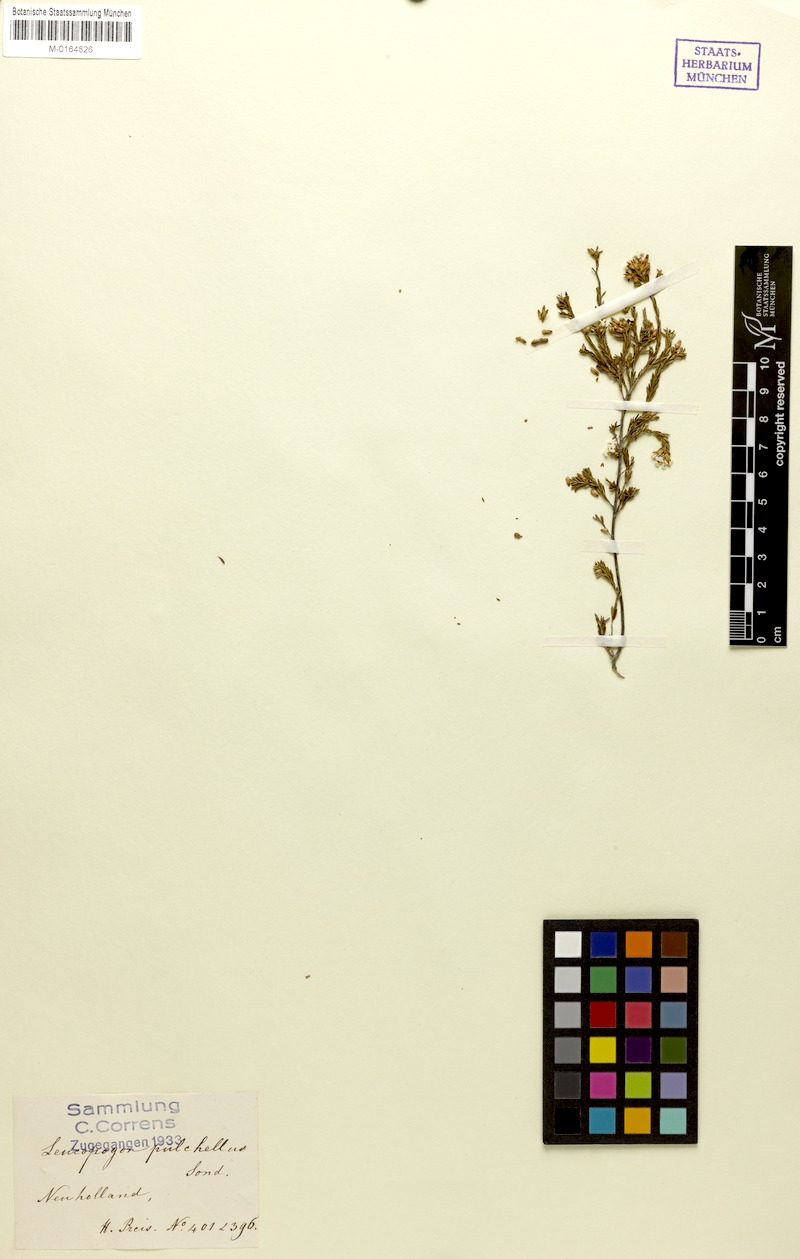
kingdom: Plantae
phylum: Tracheophyta
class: Magnoliopsida
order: Ericales
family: Ericaceae
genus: Leucopogon
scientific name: Leucopogon pulchellus
